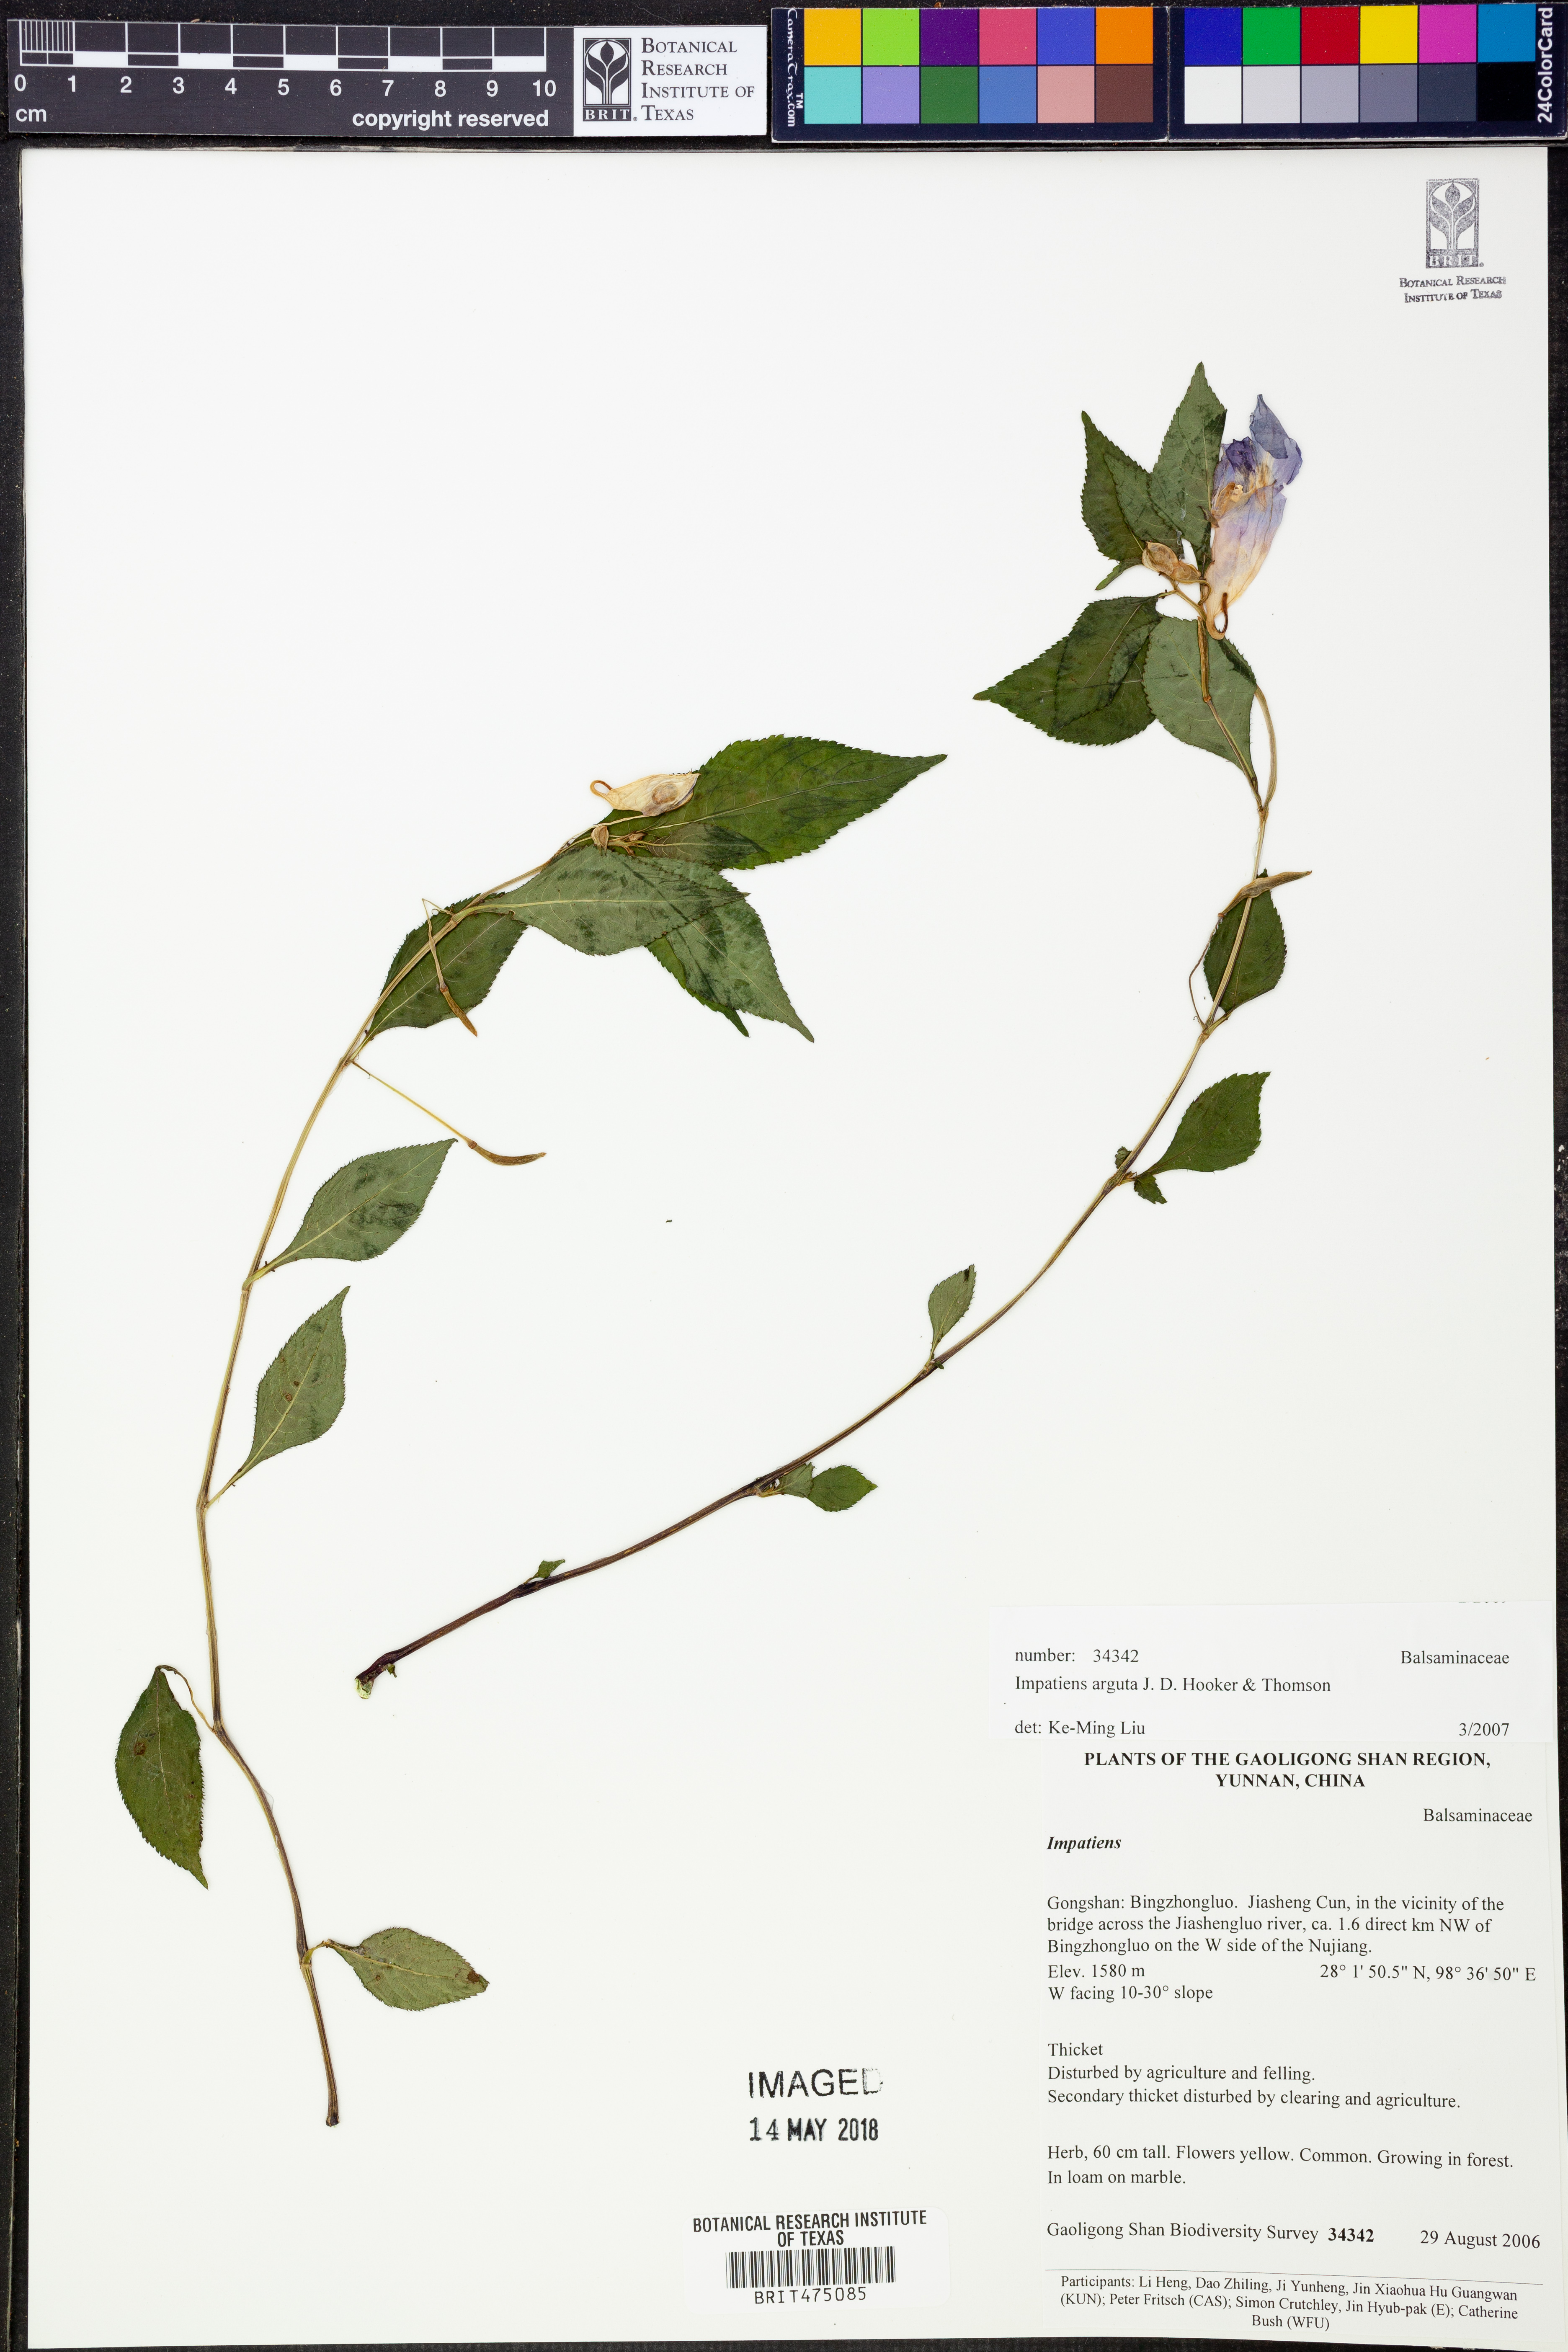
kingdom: Plantae
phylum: Tracheophyta
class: Magnoliopsida
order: Ericales
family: Balsaminaceae
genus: Impatiens
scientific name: Impatiens arguta
